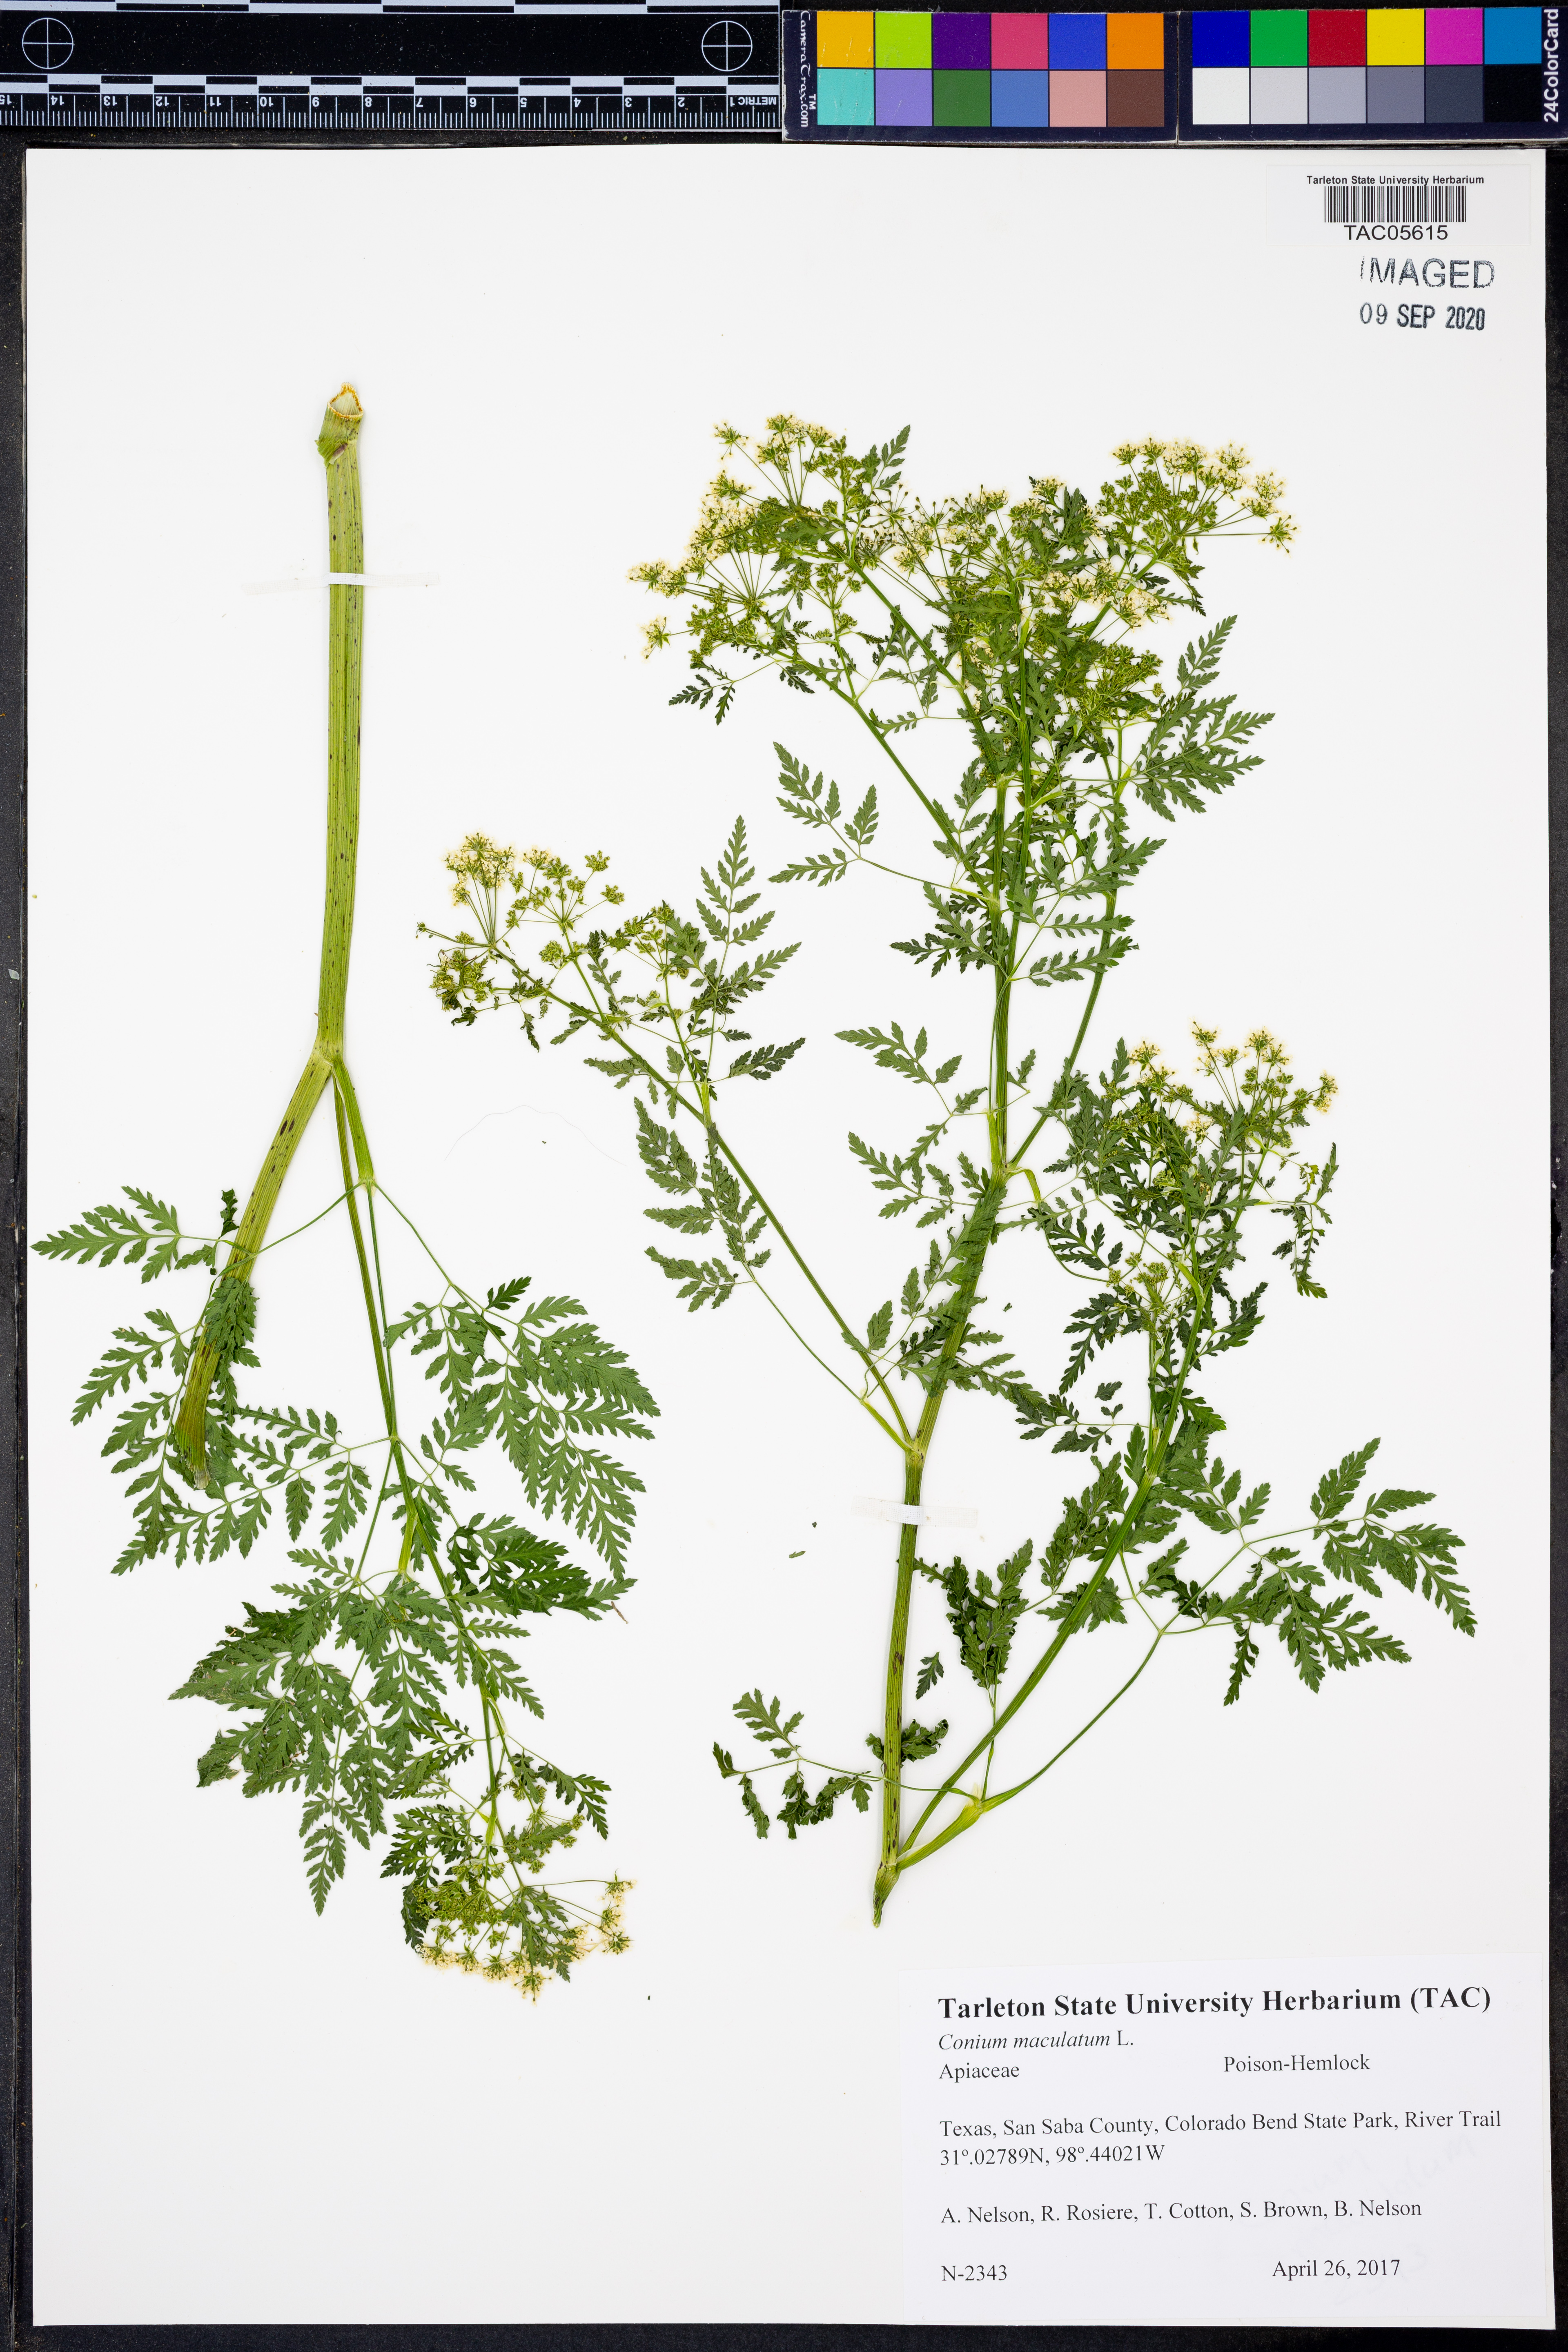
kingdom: Plantae
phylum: Tracheophyta
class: Magnoliopsida
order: Apiales
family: Apiaceae
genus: Conium
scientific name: Conium maculatum
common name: Hemlock
